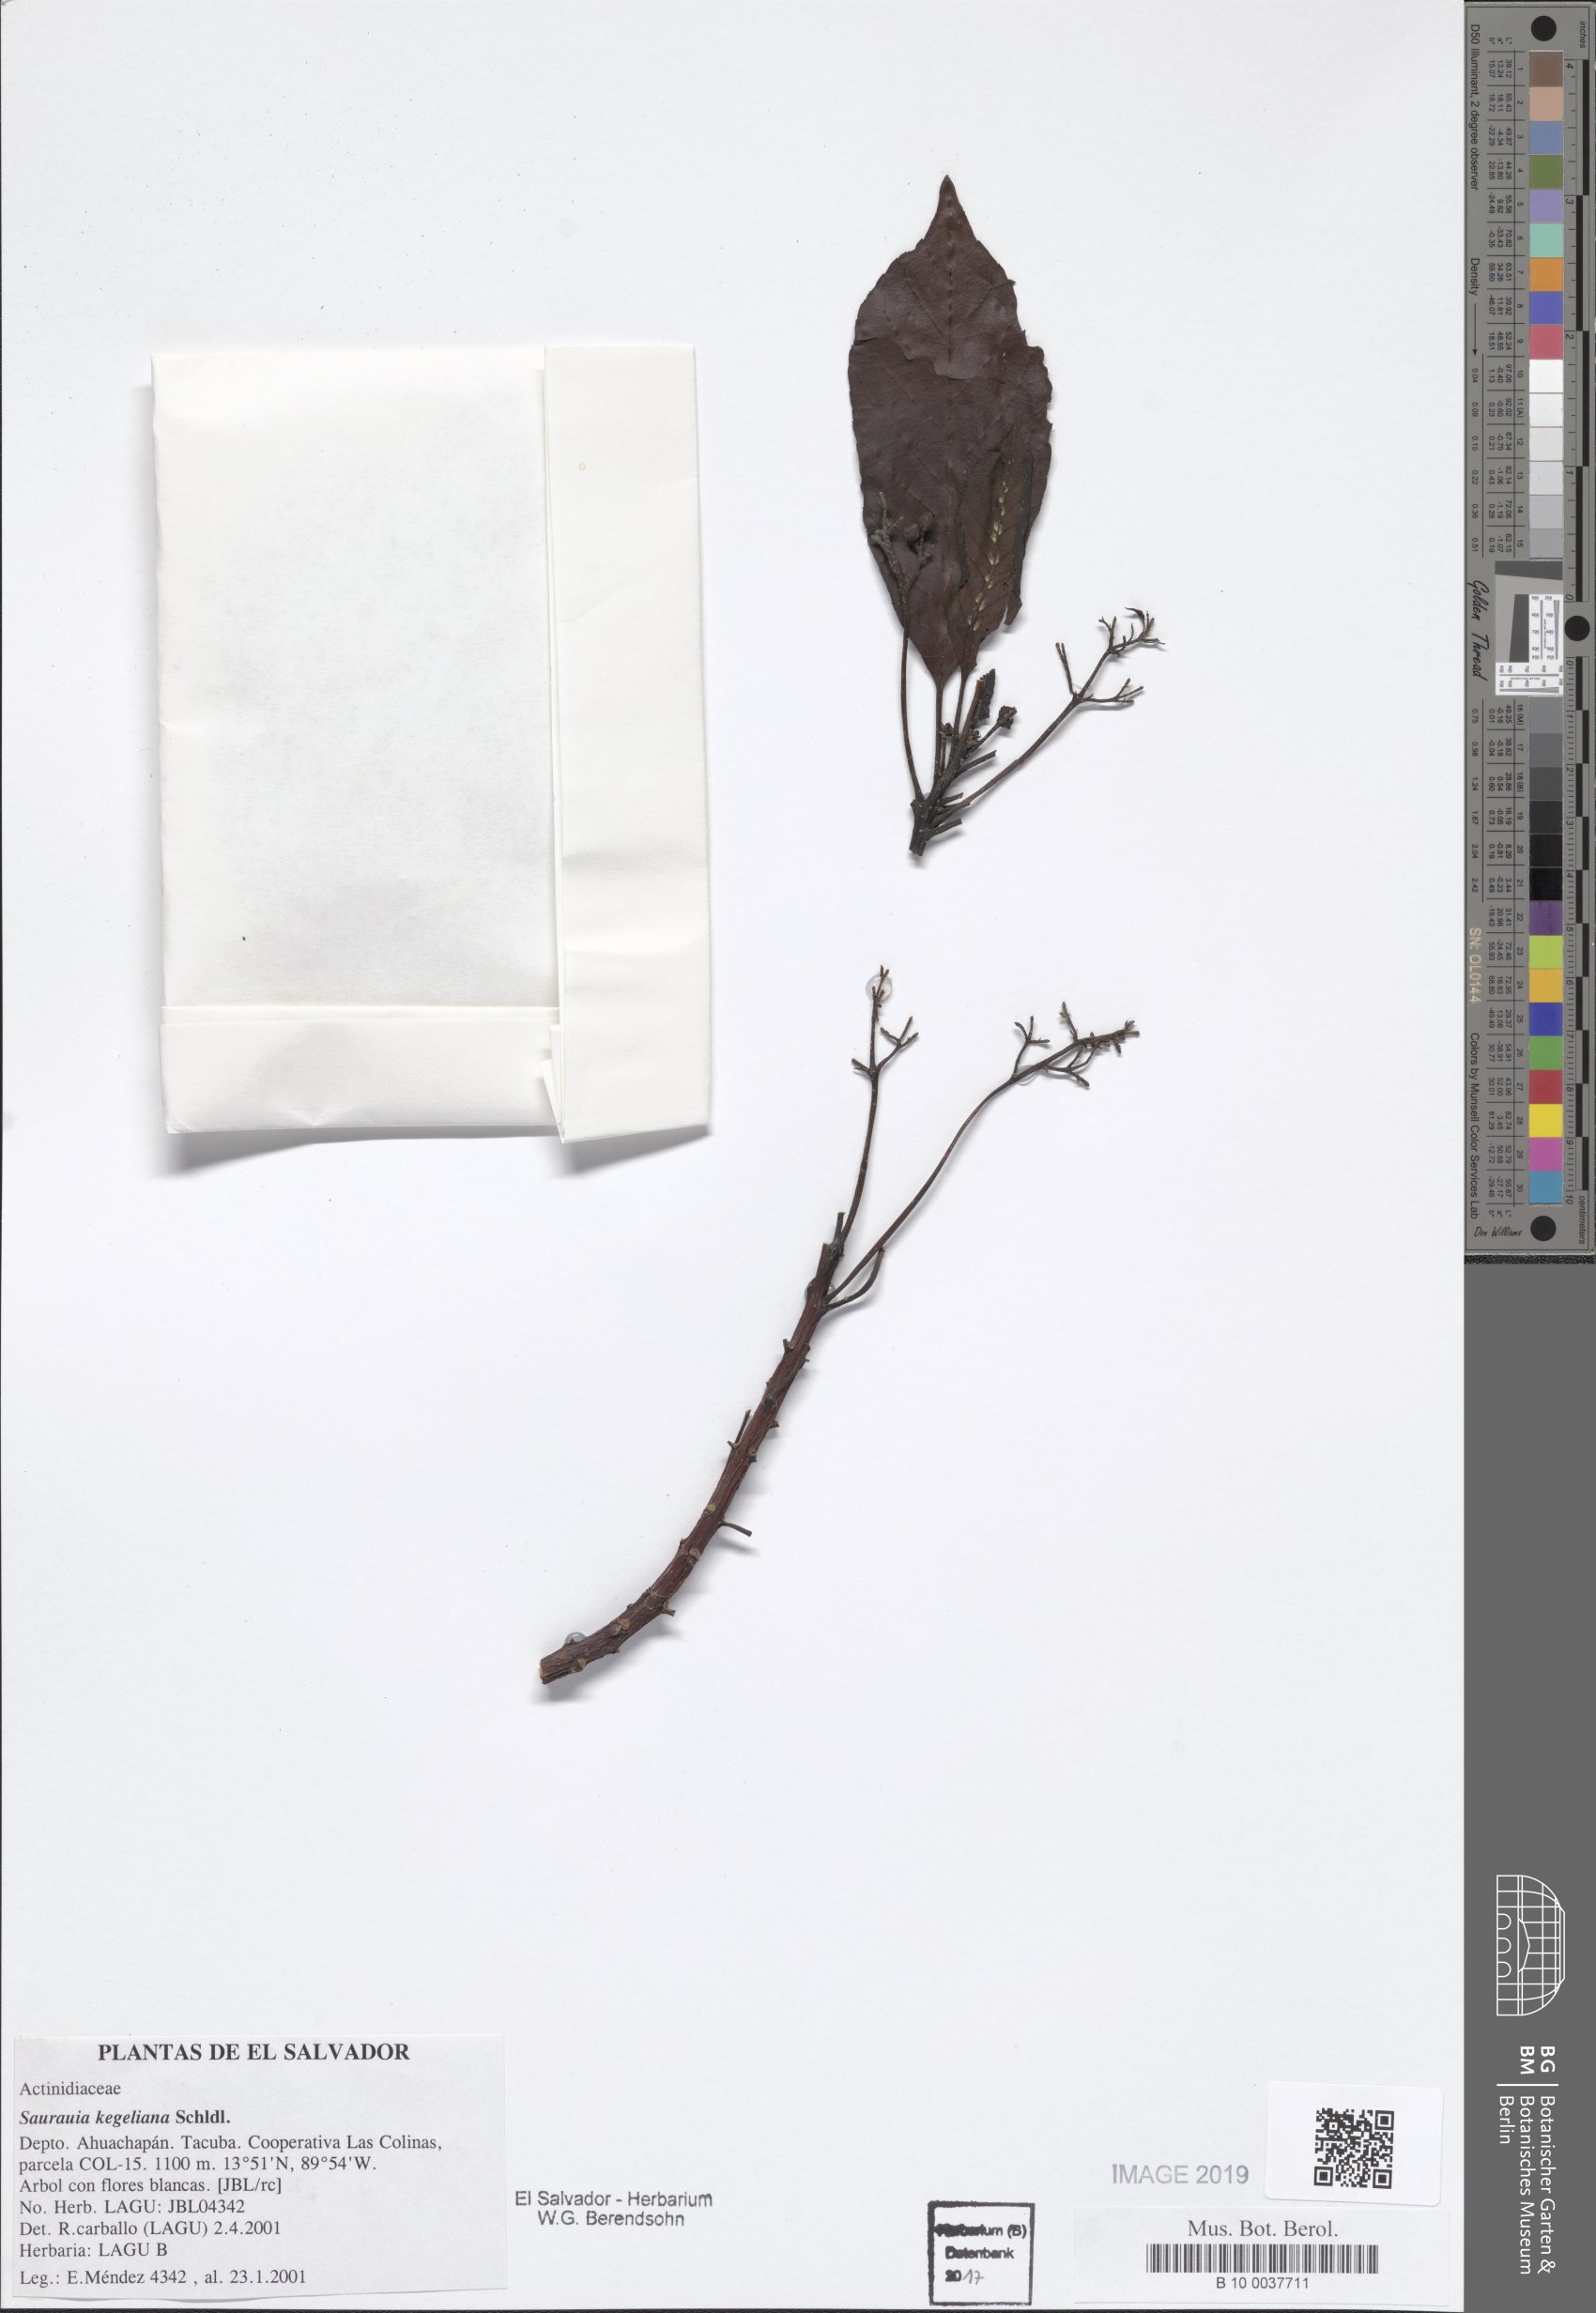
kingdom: Plantae
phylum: Tracheophyta
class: Magnoliopsida
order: Ericales
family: Actinidiaceae
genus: Saurauia
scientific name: Saurauia kegeliana
